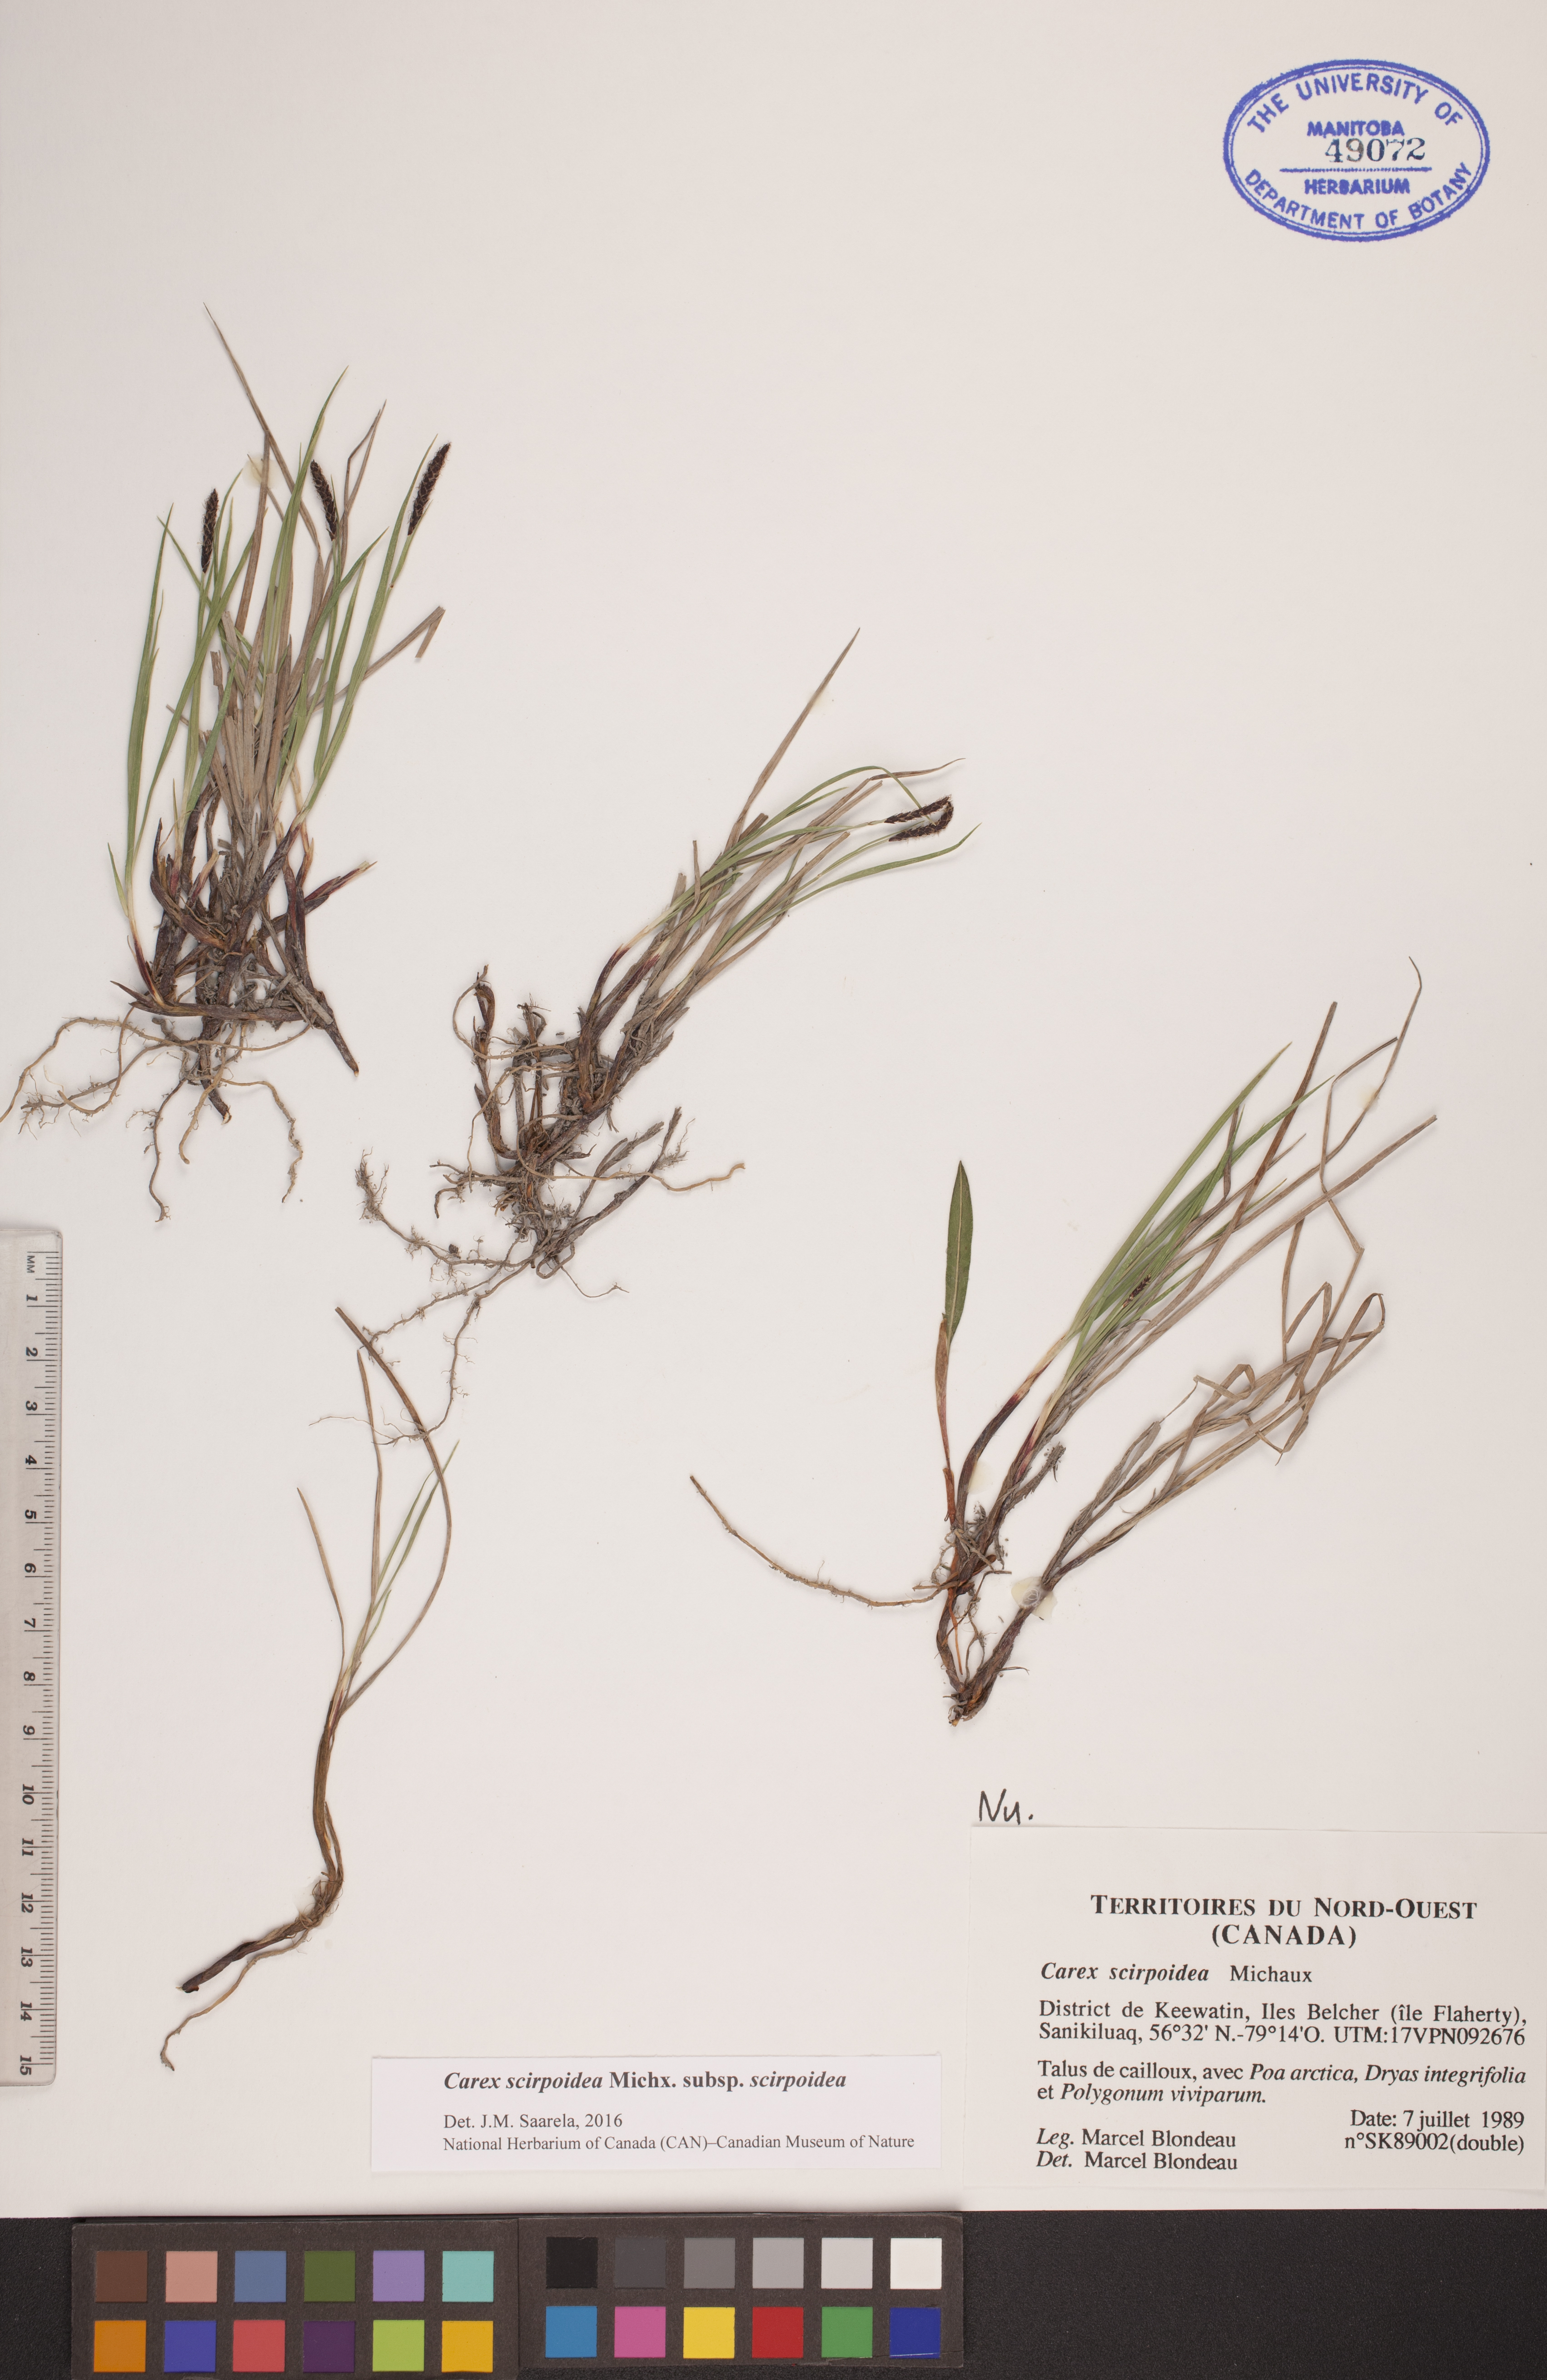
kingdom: Plantae
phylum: Tracheophyta
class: Liliopsida
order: Poales
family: Cyperaceae
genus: Carex
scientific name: Carex scirpoidea
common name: Canada single-spike sedge
